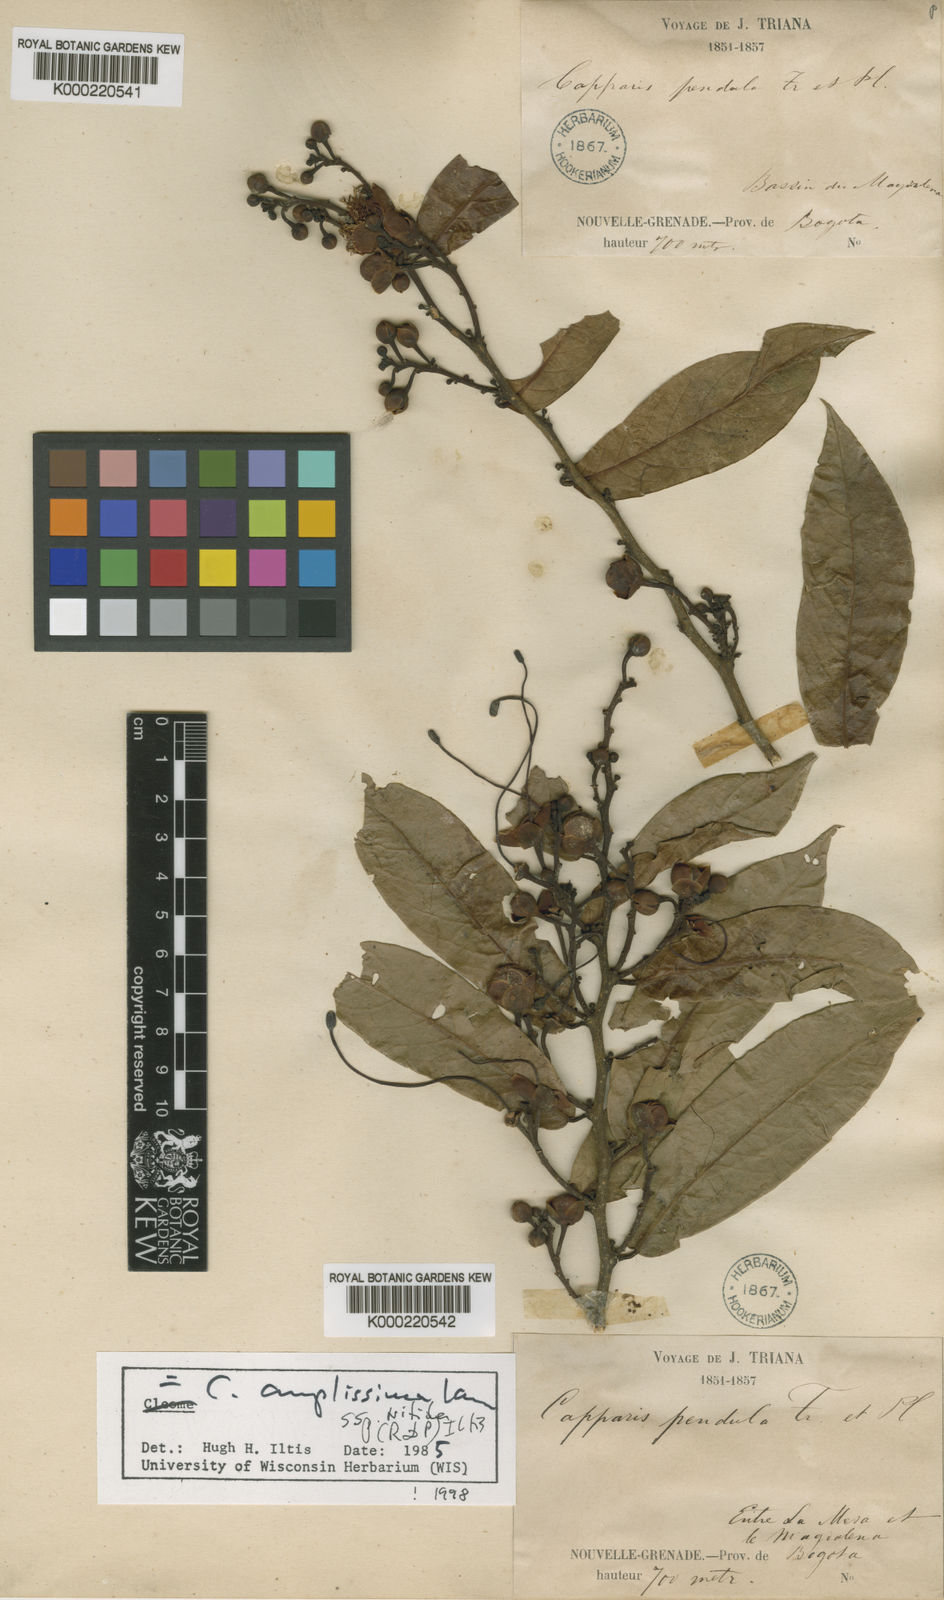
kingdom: Plantae
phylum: Tracheophyta
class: Magnoliopsida
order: Brassicales
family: Capparaceae
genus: Cynophalla
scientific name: Cynophalla amplissima
